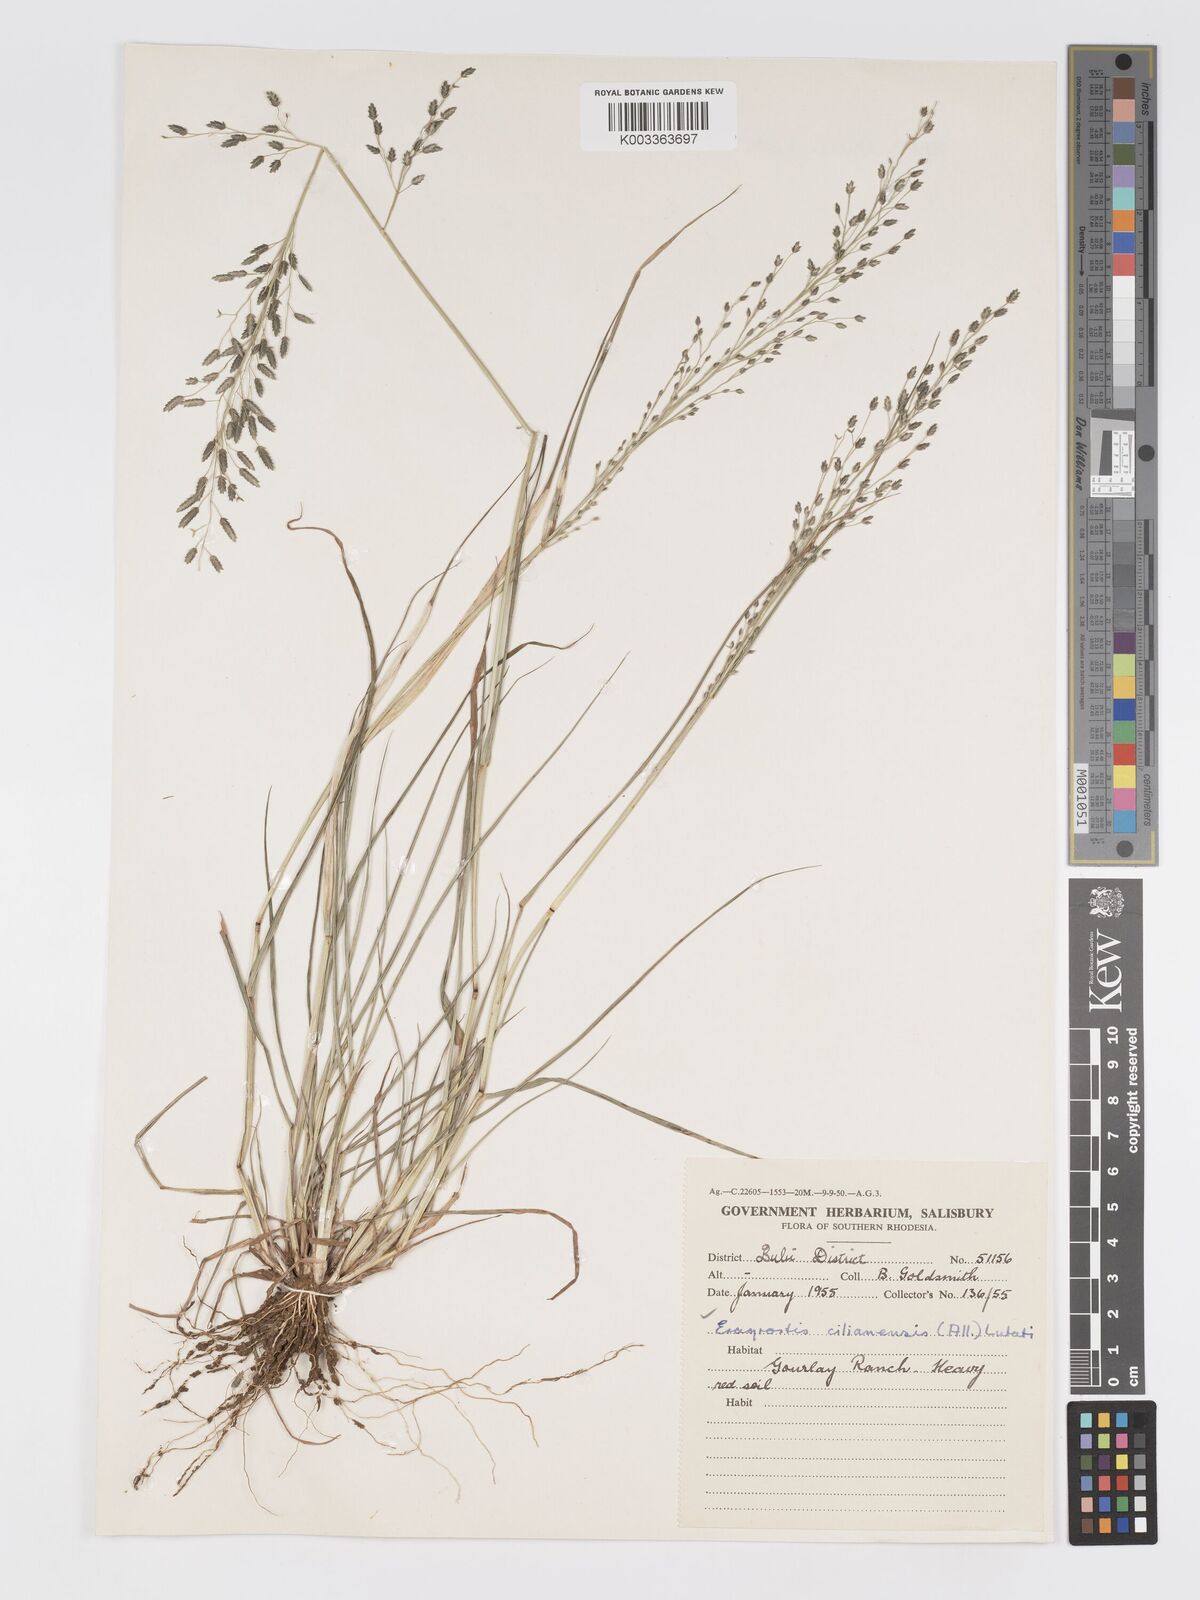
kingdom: Plantae
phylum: Tracheophyta
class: Liliopsida
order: Poales
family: Poaceae
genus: Eragrostis
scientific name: Eragrostis cilianensis
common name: Stinkgrass
